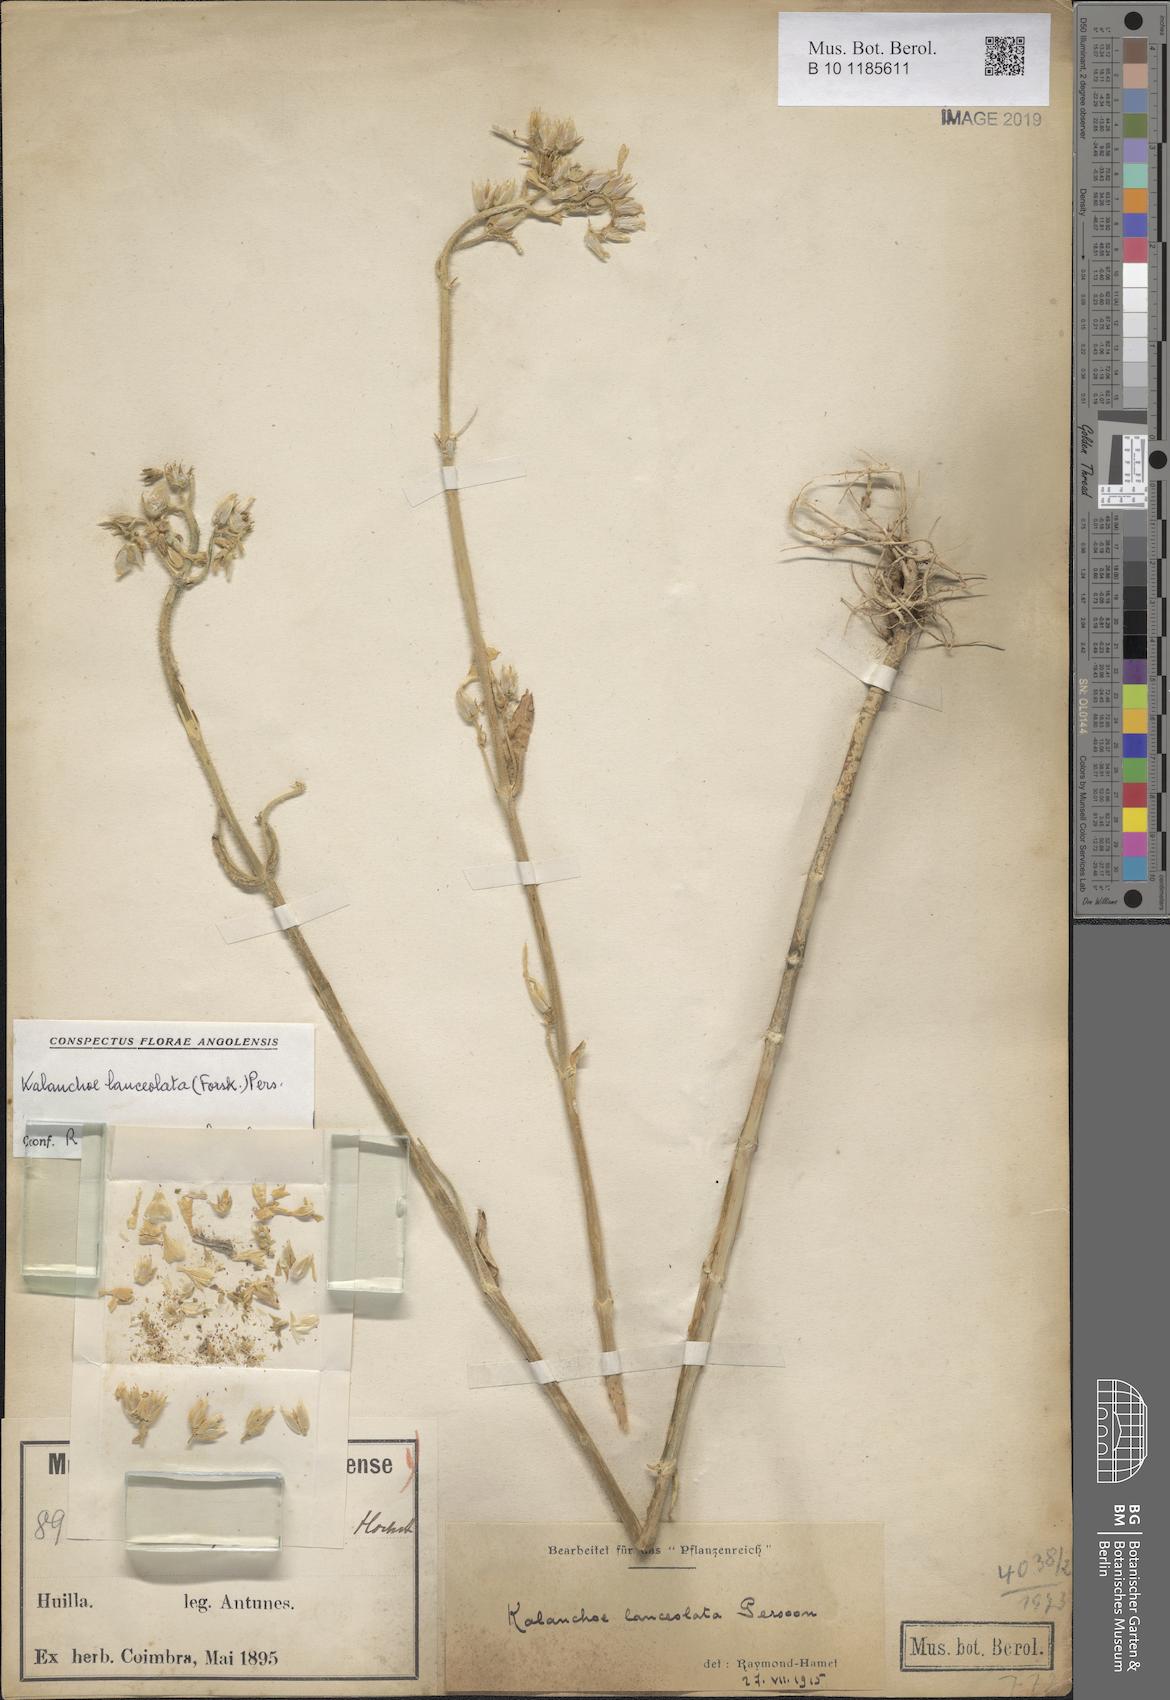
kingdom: Plantae
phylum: Tracheophyta
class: Magnoliopsida
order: Saxifragales
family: Crassulaceae
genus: Kalanchoe
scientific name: Kalanchoe lanceolata
